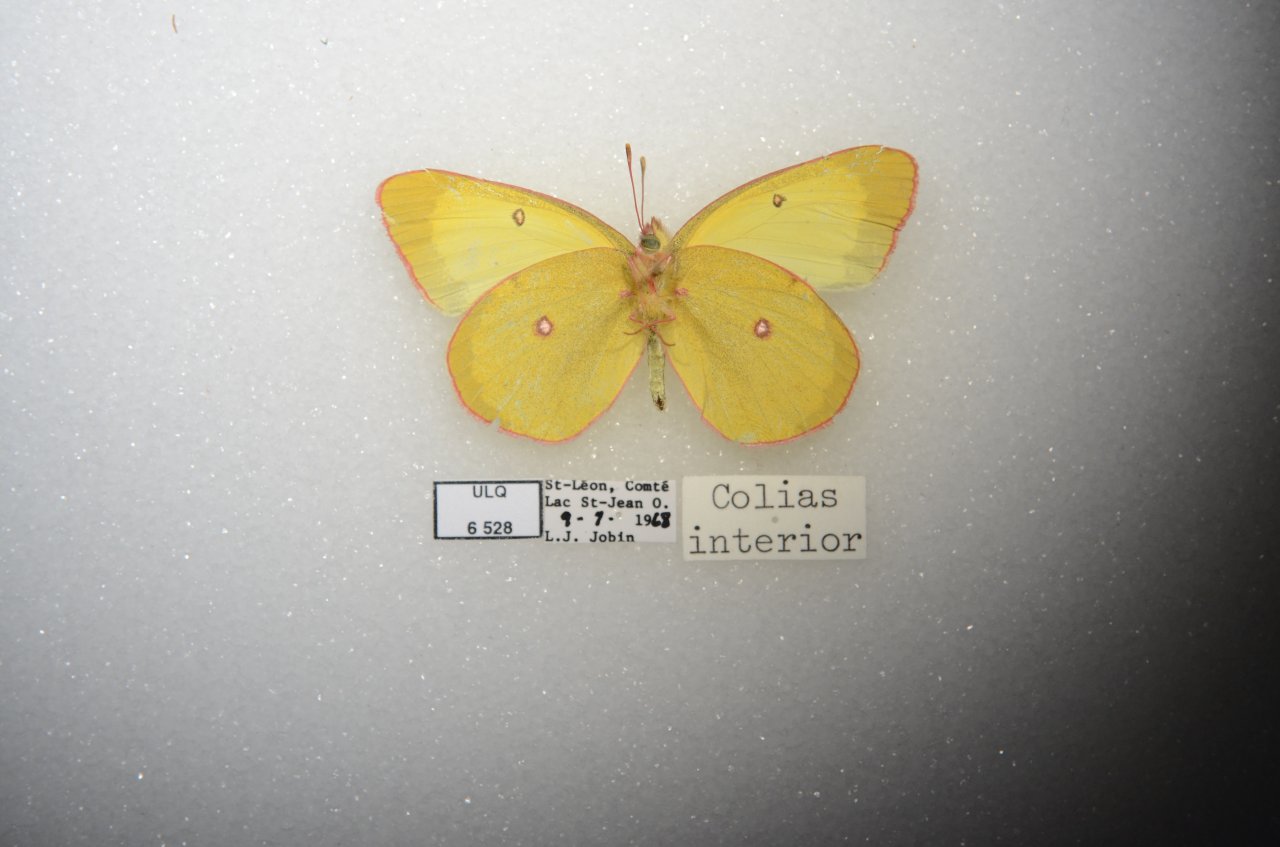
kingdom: Animalia
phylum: Arthropoda
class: Insecta
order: Lepidoptera
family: Pieridae
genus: Colias
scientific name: Colias interior
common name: Pink-edged Sulphur
